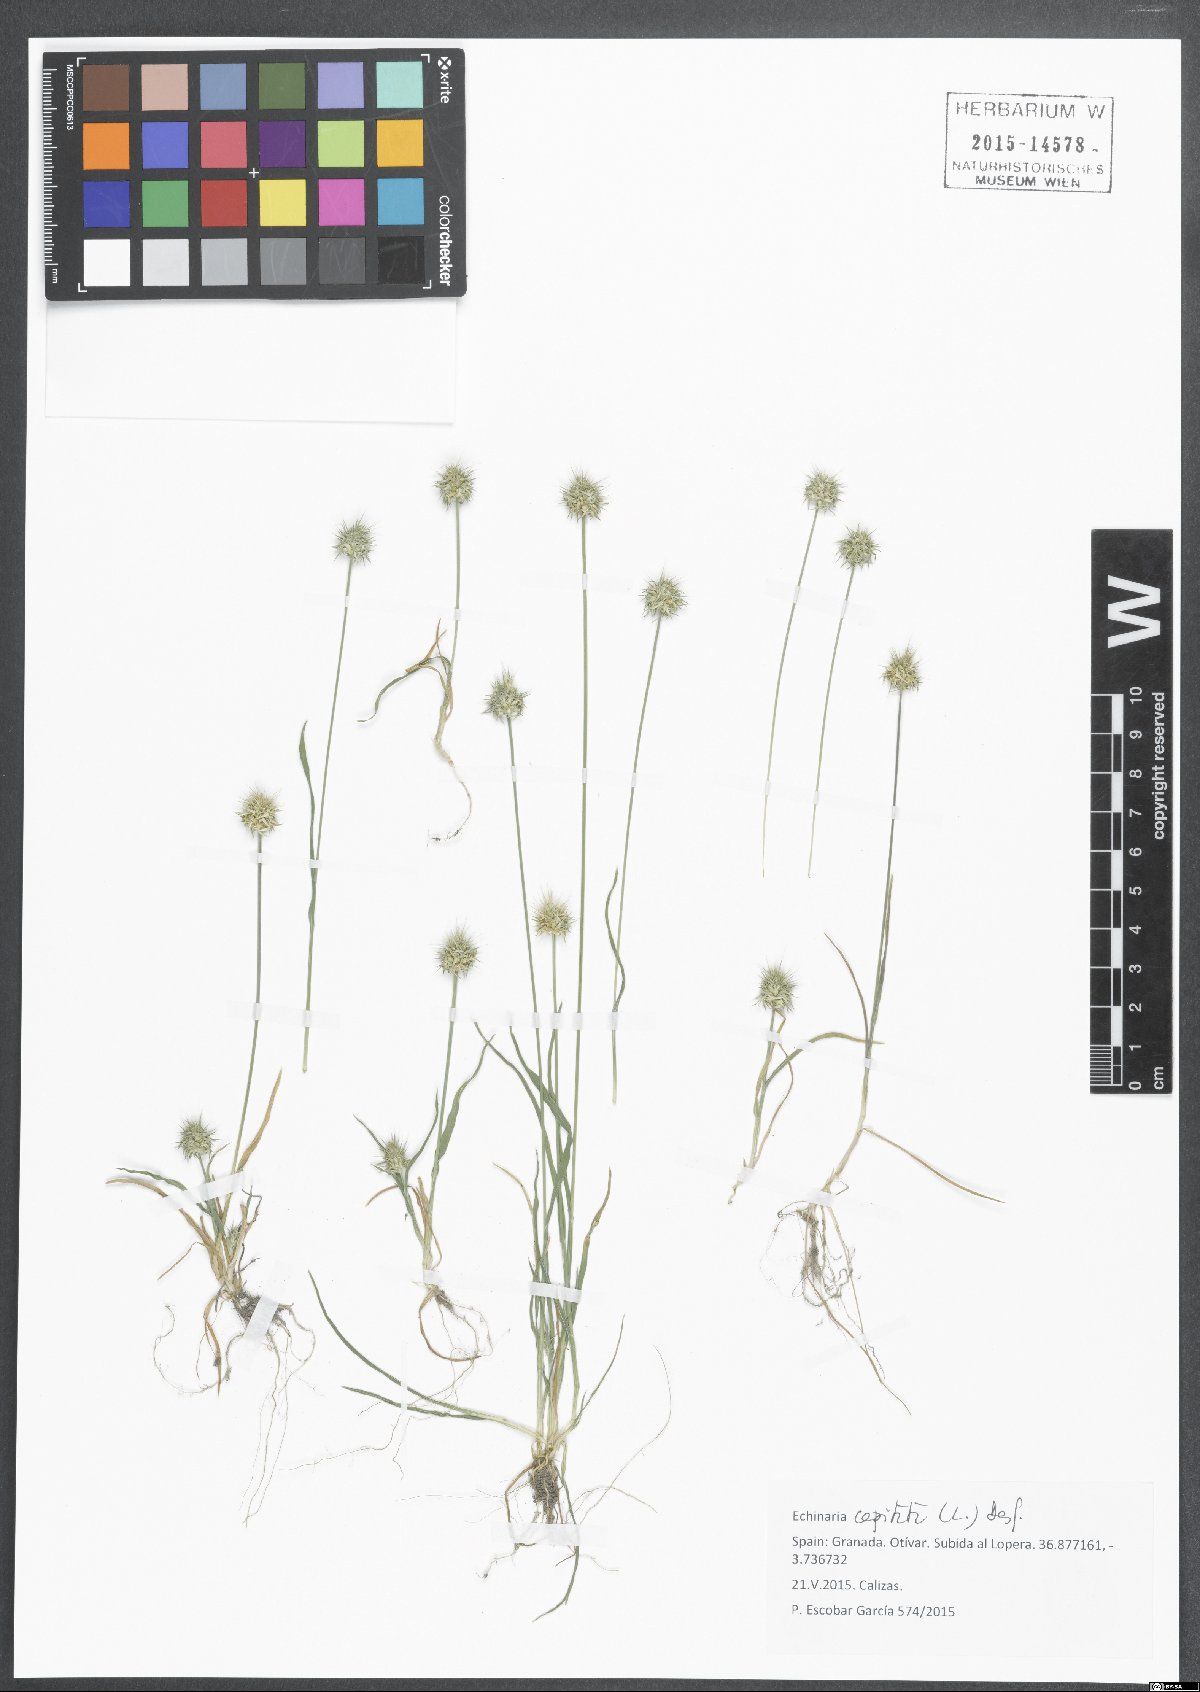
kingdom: Plantae
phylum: Tracheophyta
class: Liliopsida
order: Poales
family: Poaceae
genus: Echinaria
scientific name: Echinaria capitata
